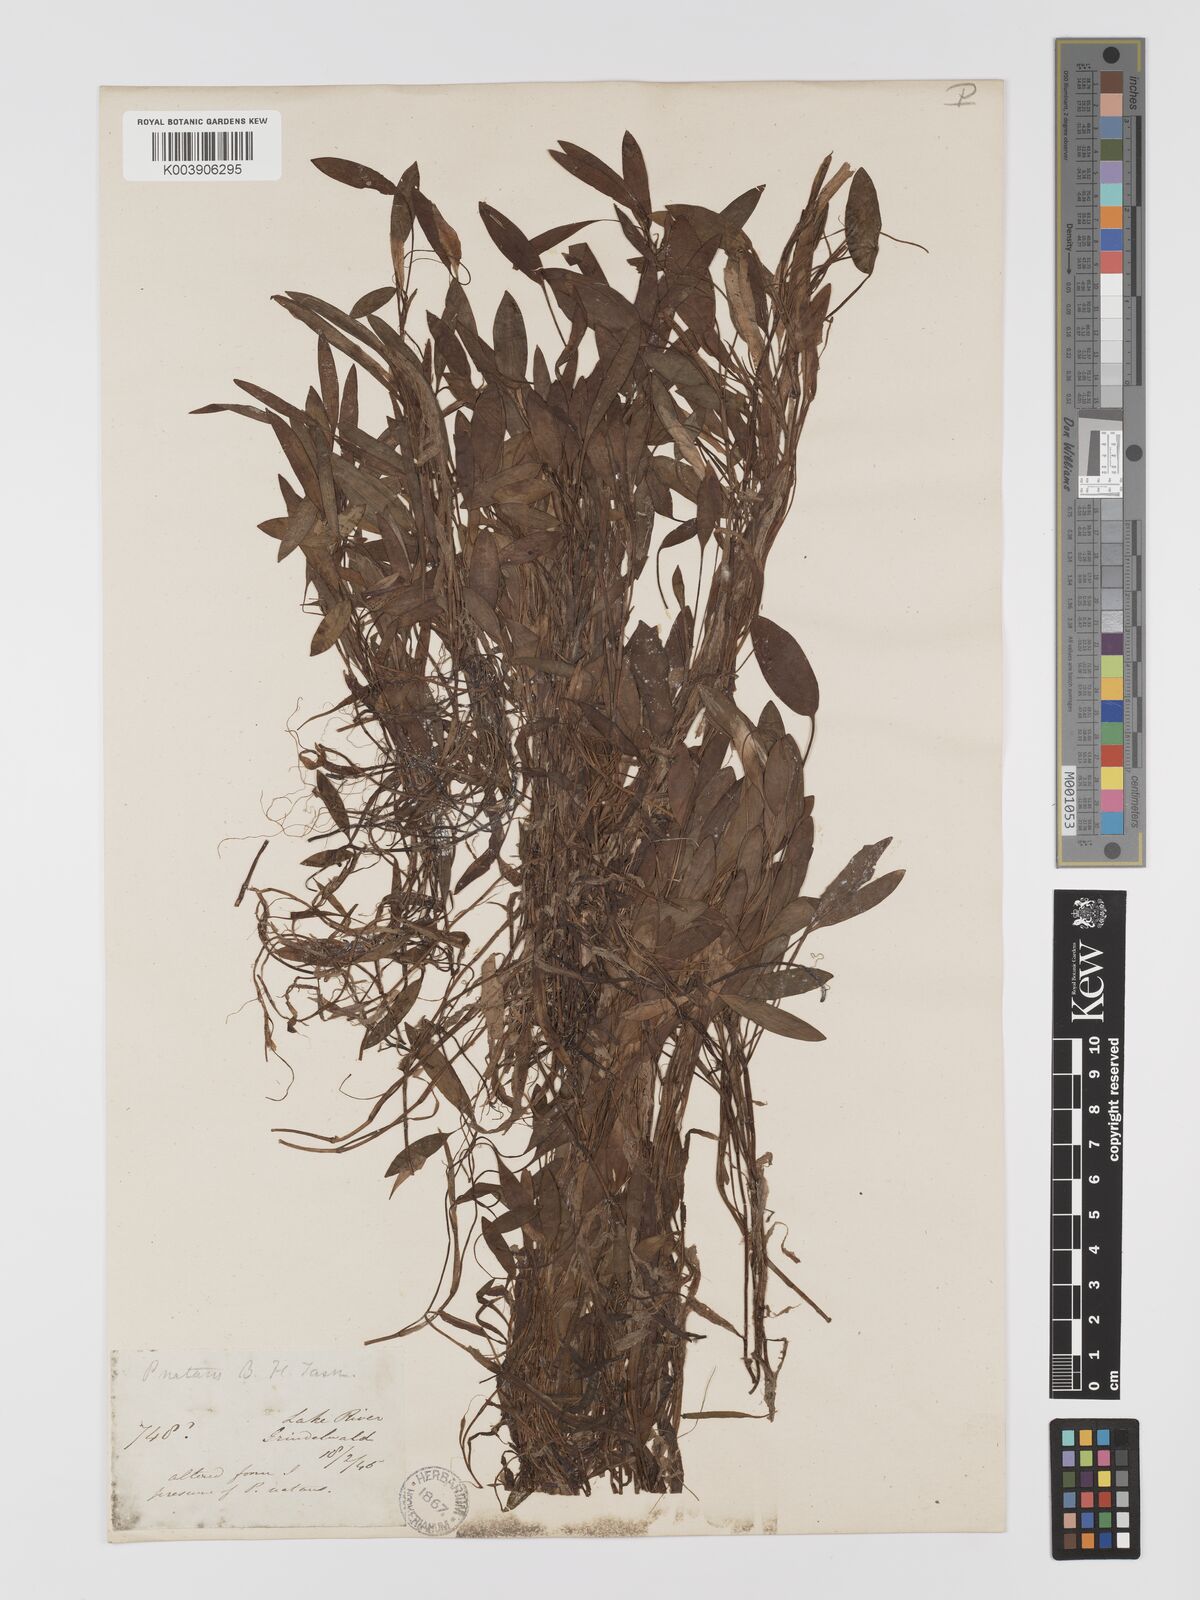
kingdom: Plantae
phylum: Tracheophyta
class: Liliopsida
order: Alismatales
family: Potamogetonaceae
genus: Potamogeton
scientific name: Potamogeton drummondii
